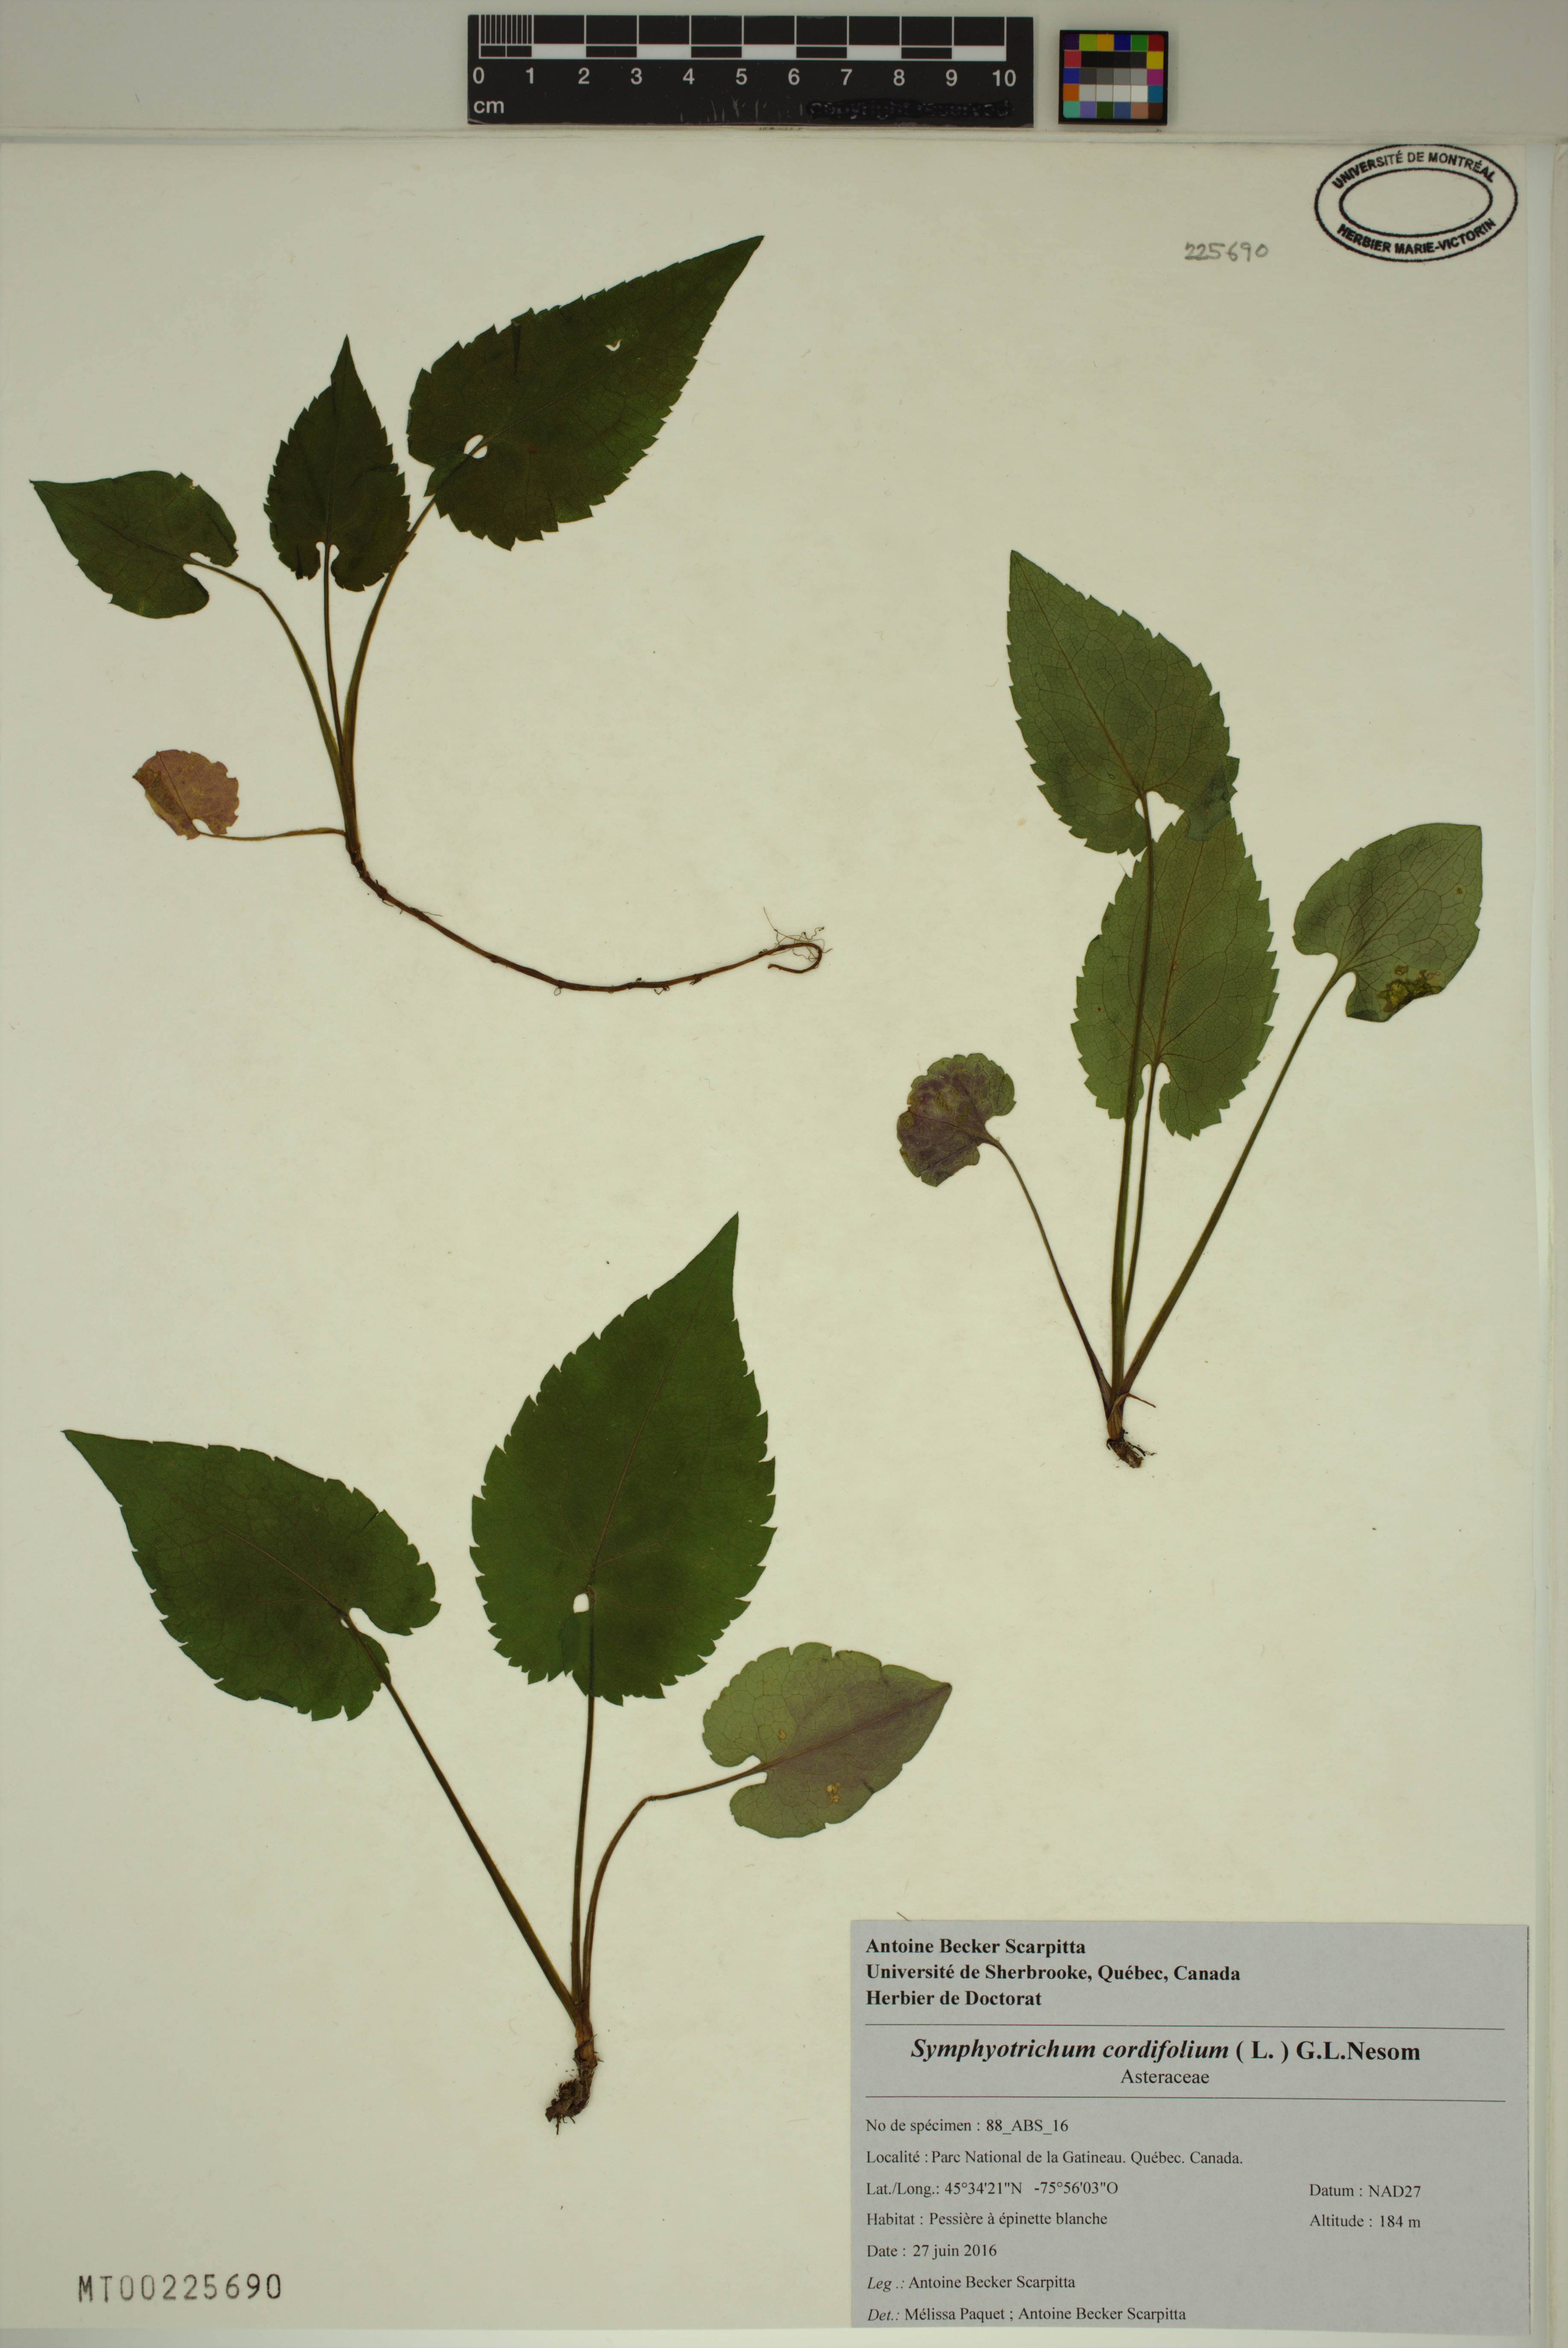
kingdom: Plantae
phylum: Tracheophyta
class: Magnoliopsida
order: Asterales
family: Asteraceae
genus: Symphyotrichum
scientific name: Symphyotrichum cordifolium
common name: Beeweed
